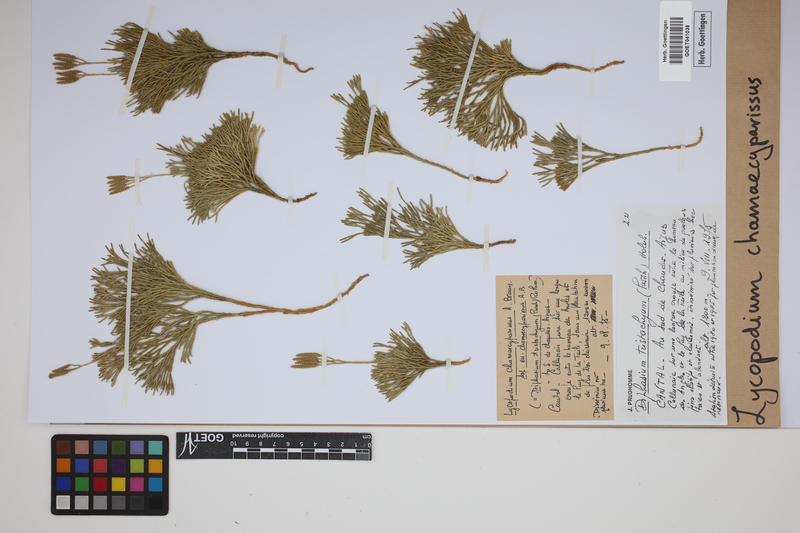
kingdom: Plantae
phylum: Tracheophyta
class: Lycopodiopsida
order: Lycopodiales
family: Lycopodiaceae
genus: Diphasiastrum
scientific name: Diphasiastrum tristachyum
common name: Blue ground-cedar
